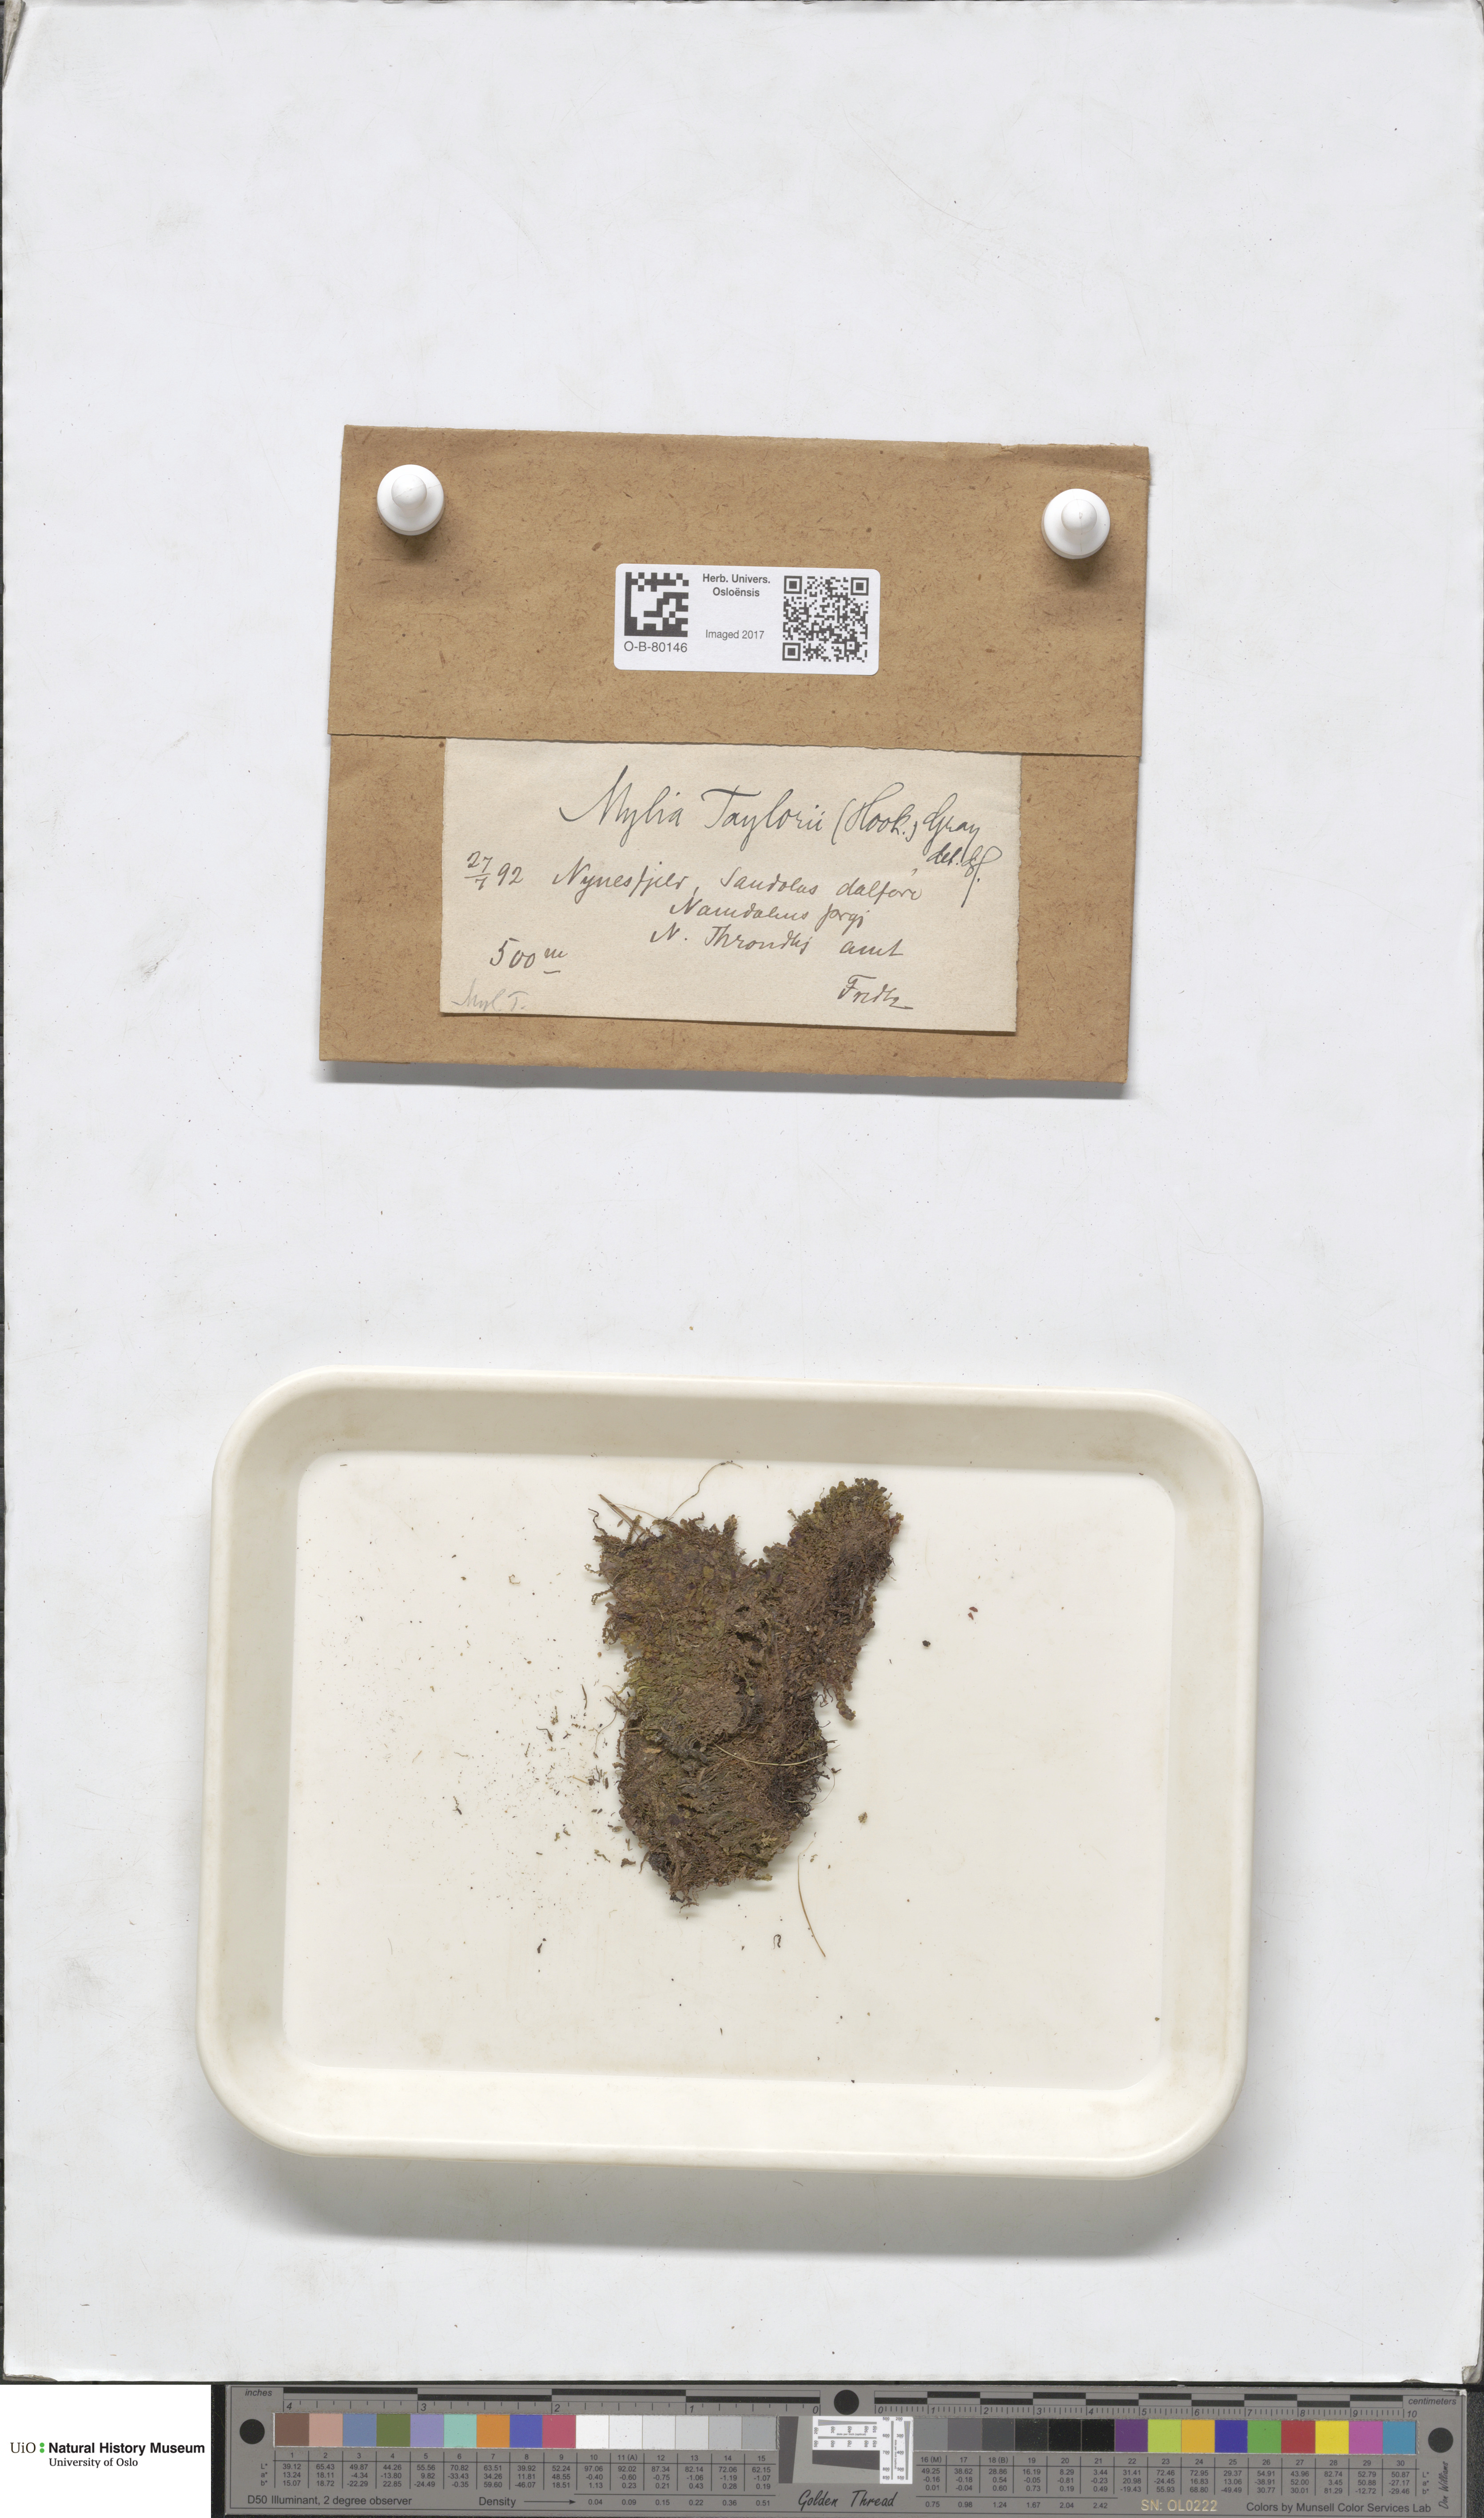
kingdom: Plantae
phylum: Marchantiophyta
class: Jungermanniopsida
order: Jungermanniales
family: Myliaceae
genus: Mylia
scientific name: Mylia taylorii
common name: Taylor s flapwort
